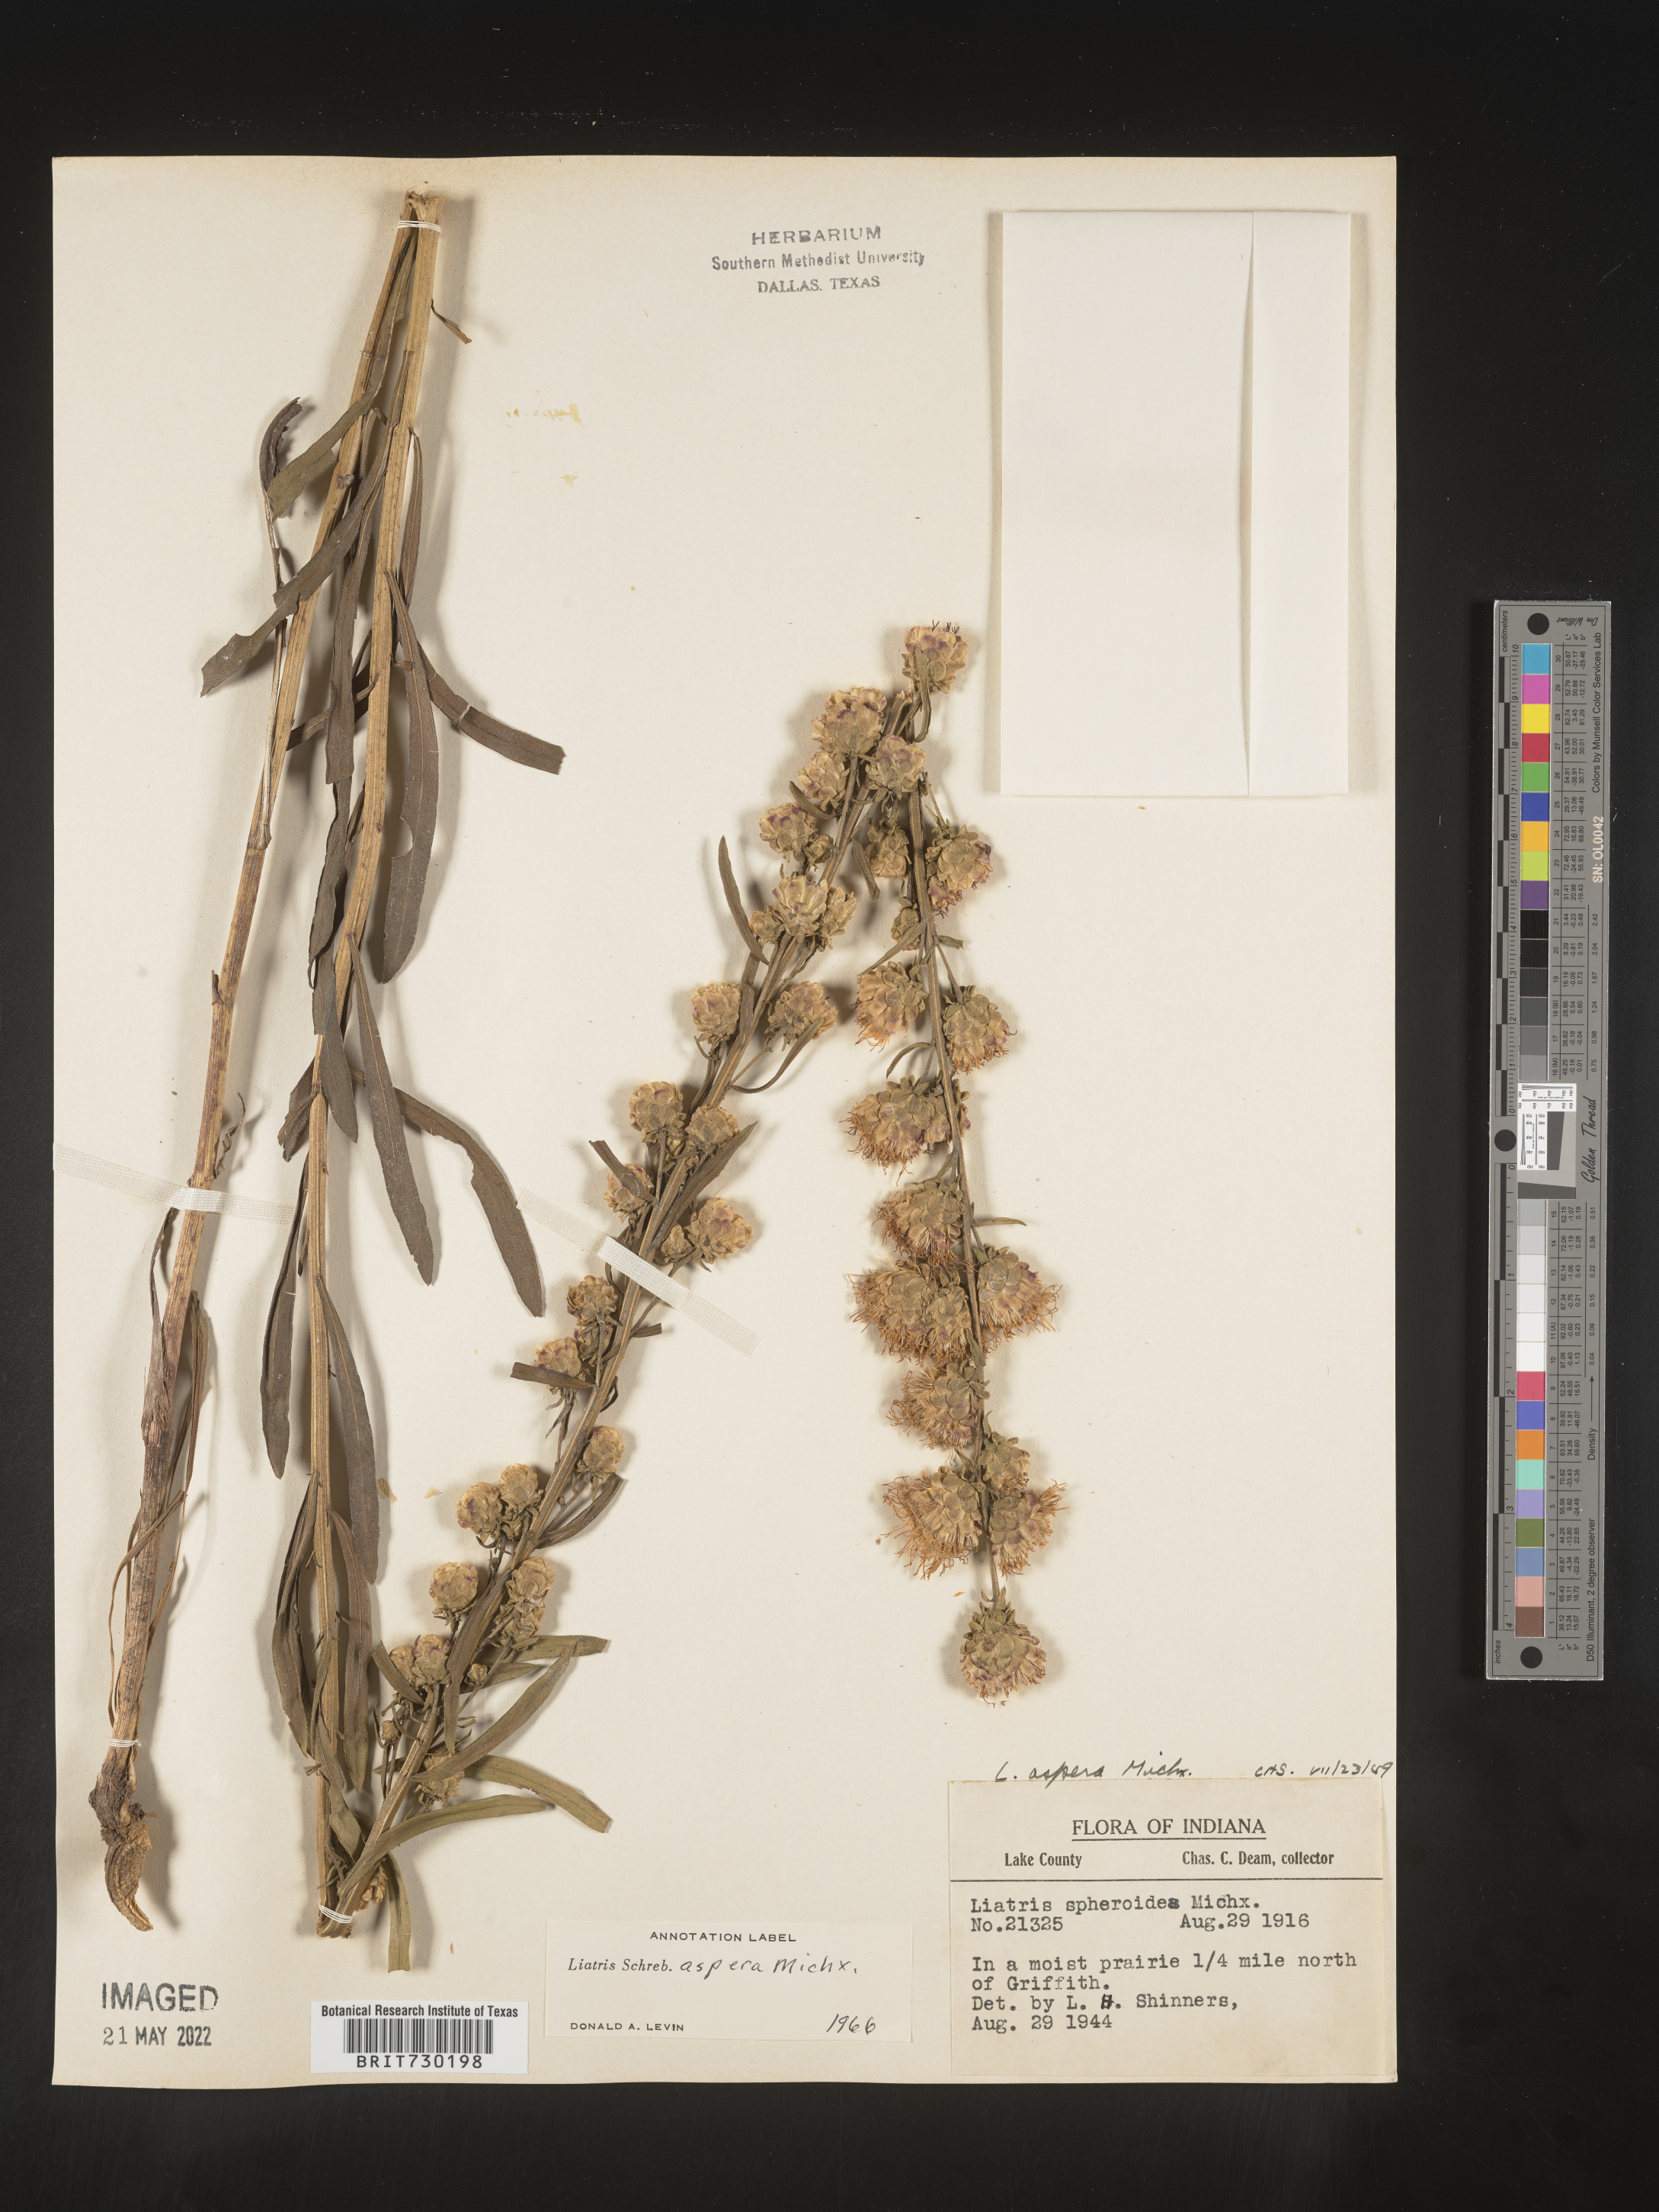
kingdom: Plantae
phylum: Tracheophyta
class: Magnoliopsida
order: Asterales
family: Asteraceae
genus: Liatris
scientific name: Liatris aspera
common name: Lacerate blazing-star
